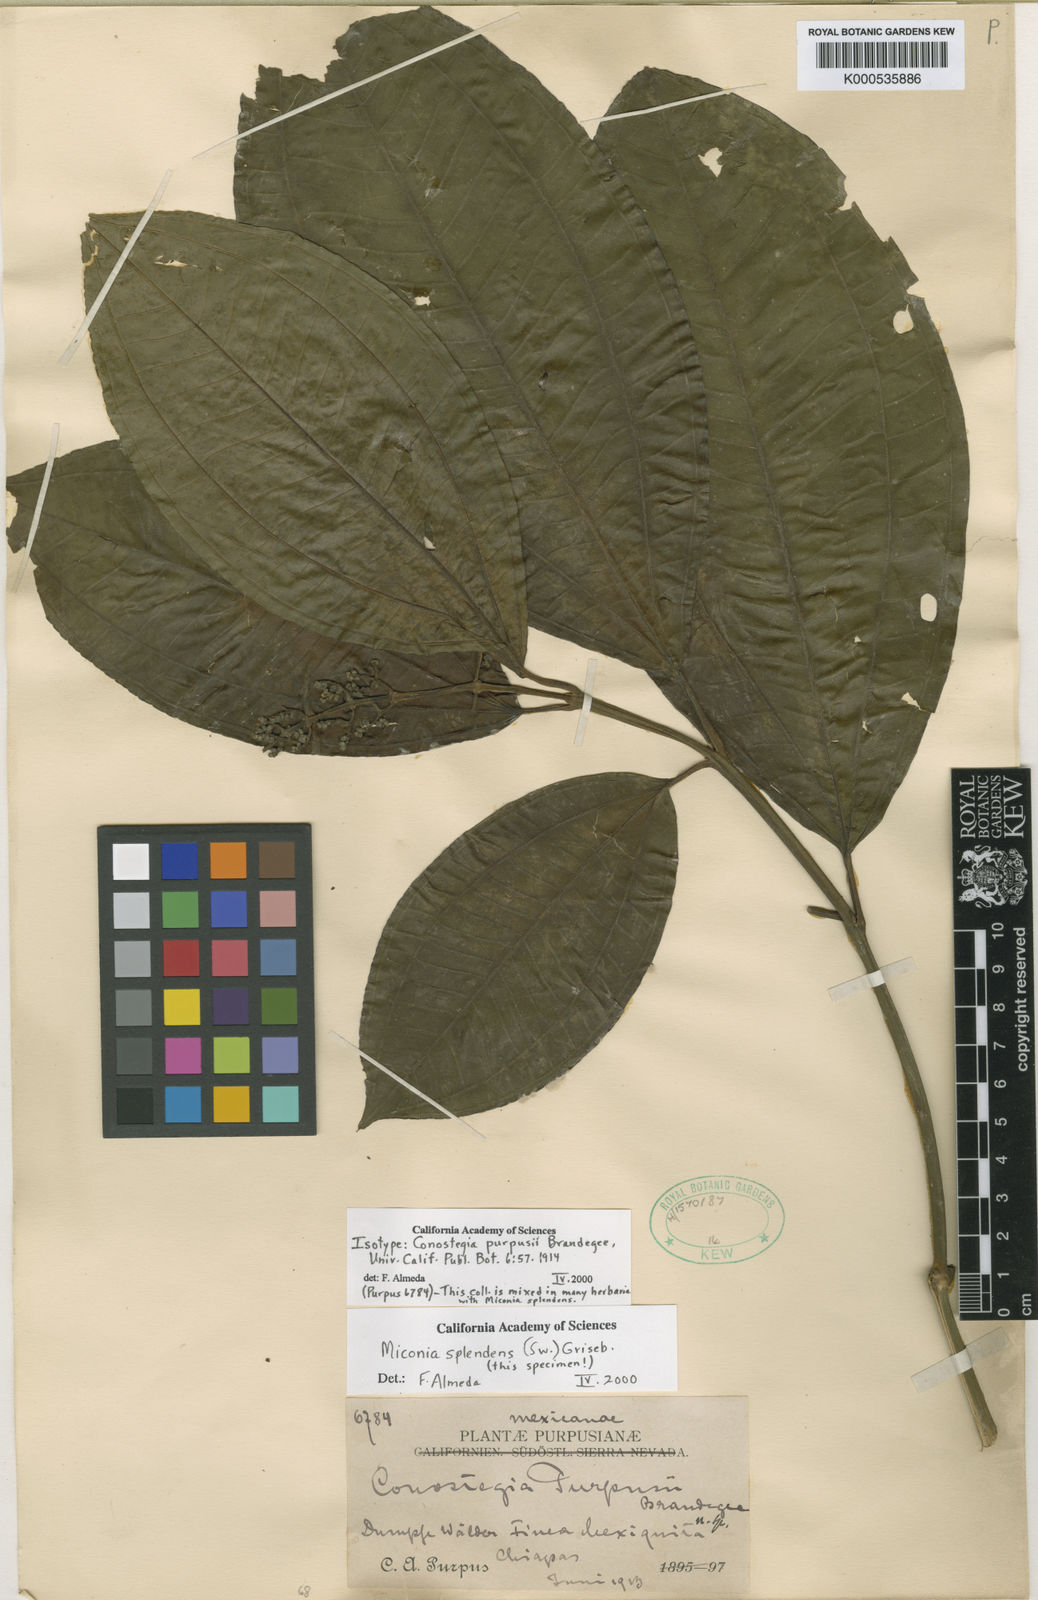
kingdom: Plantae
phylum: Tracheophyta
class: Magnoliopsida
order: Myrtales
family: Melastomataceae
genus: Miconia
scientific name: Miconia splendens
